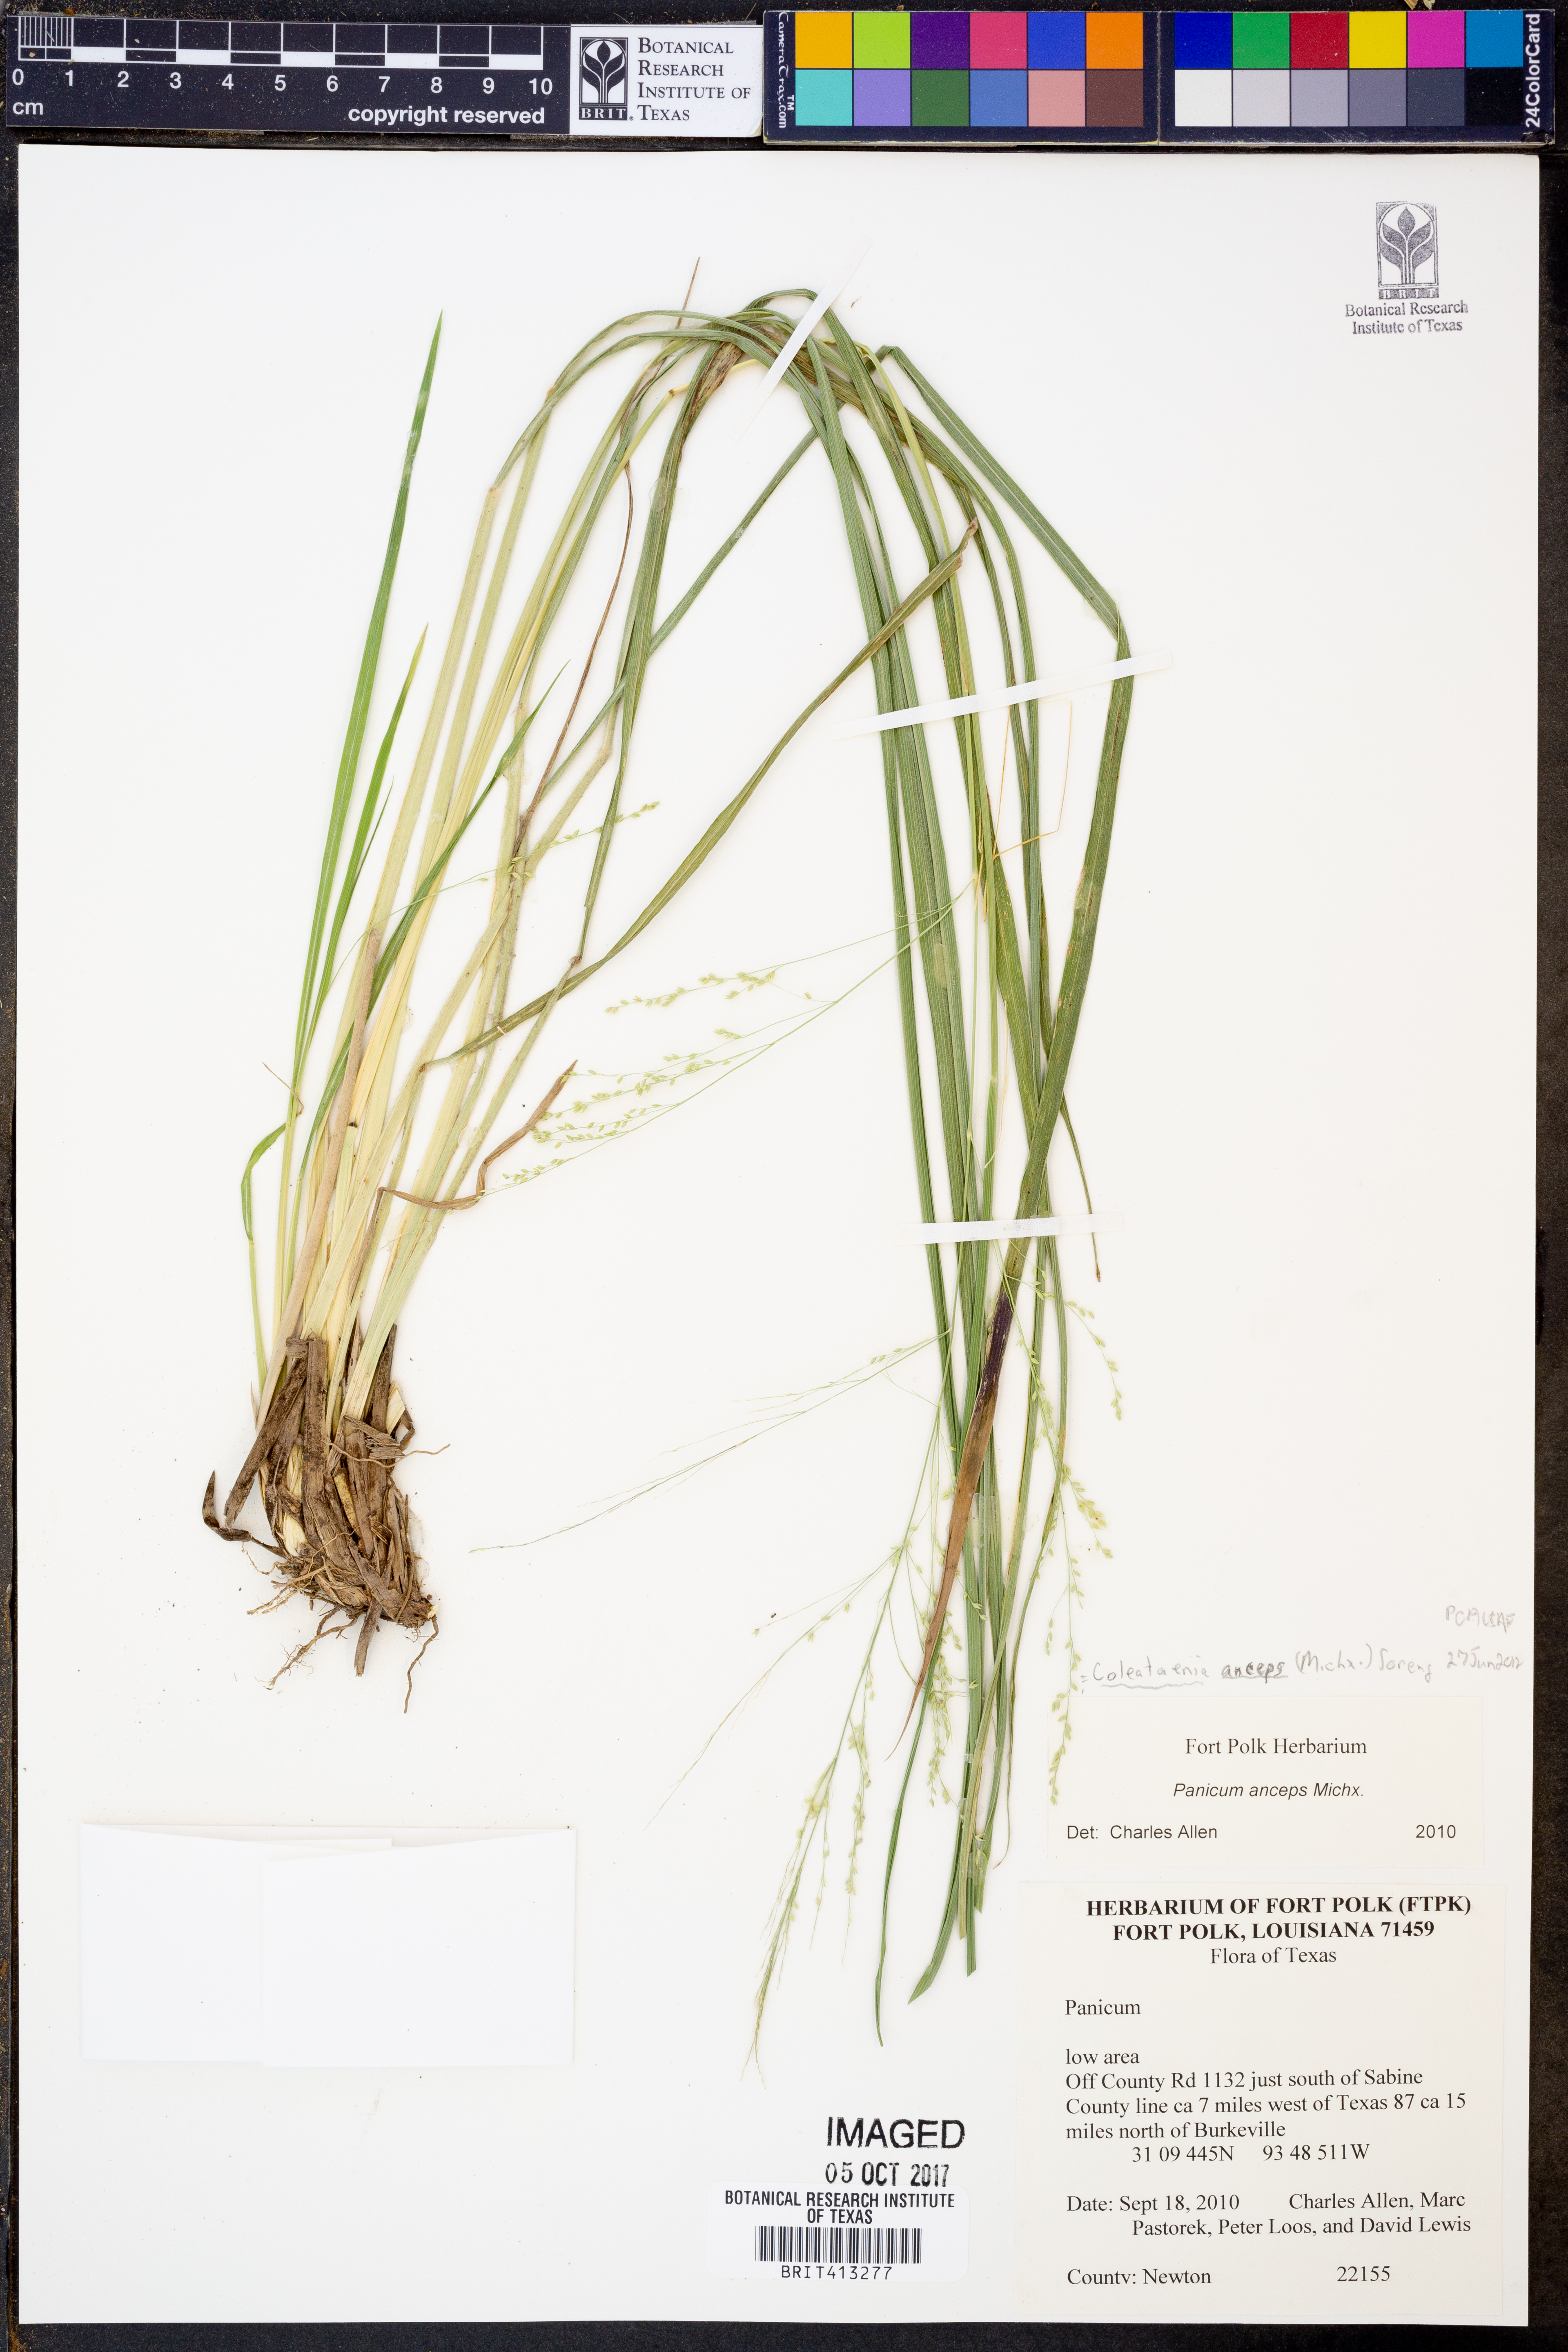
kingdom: Plantae
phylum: Tracheophyta
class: Liliopsida
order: Poales
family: Poaceae
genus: Coleataenia
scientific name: Coleataenia anceps
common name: Beaked panic grass
